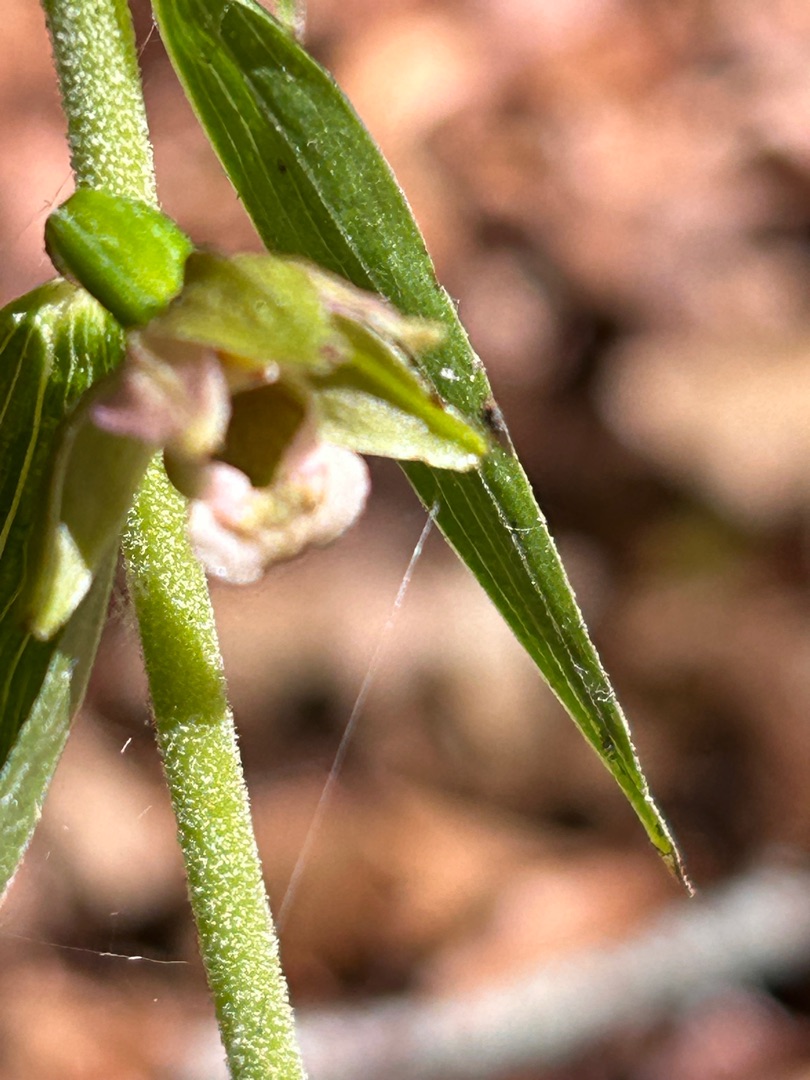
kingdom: Plantae
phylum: Tracheophyta
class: Liliopsida
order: Asparagales
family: Orchidaceae
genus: Epipactis
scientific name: Epipactis helleborine
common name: Skov-hullæbe
